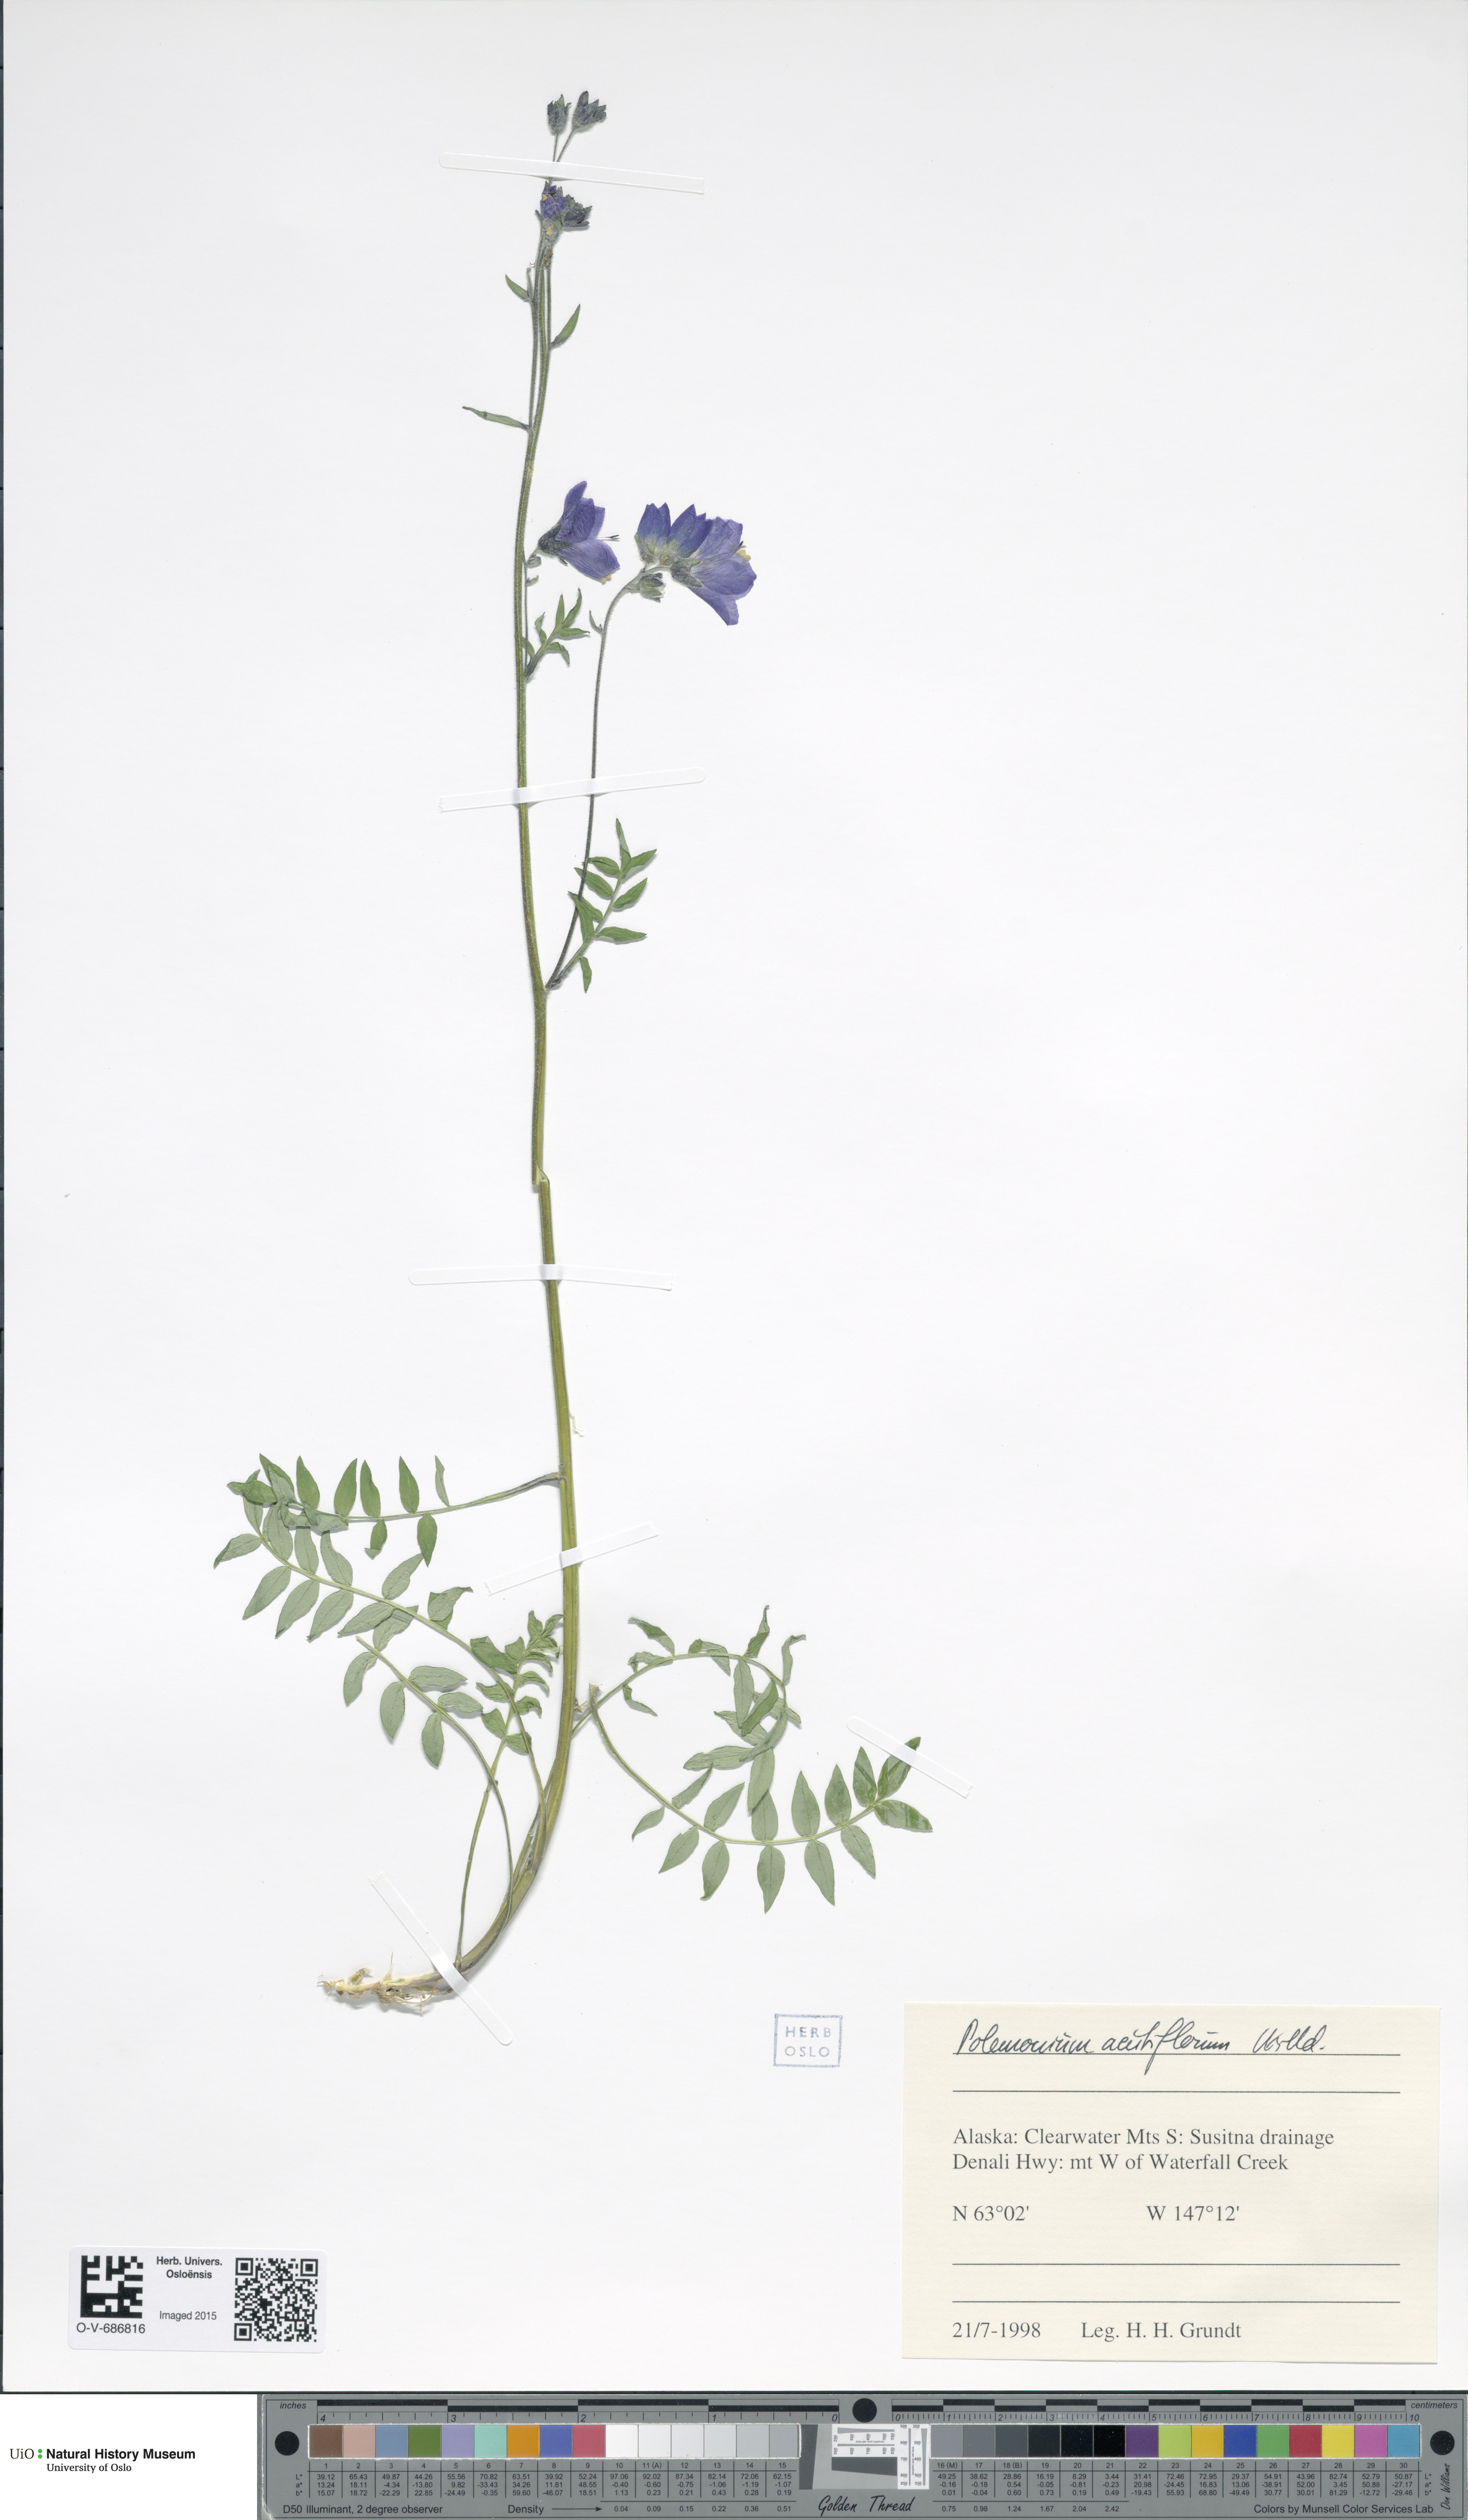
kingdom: Plantae
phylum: Tracheophyta
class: Magnoliopsida
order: Ericales
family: Polemoniaceae
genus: Polemonium
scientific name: Polemonium villosum
